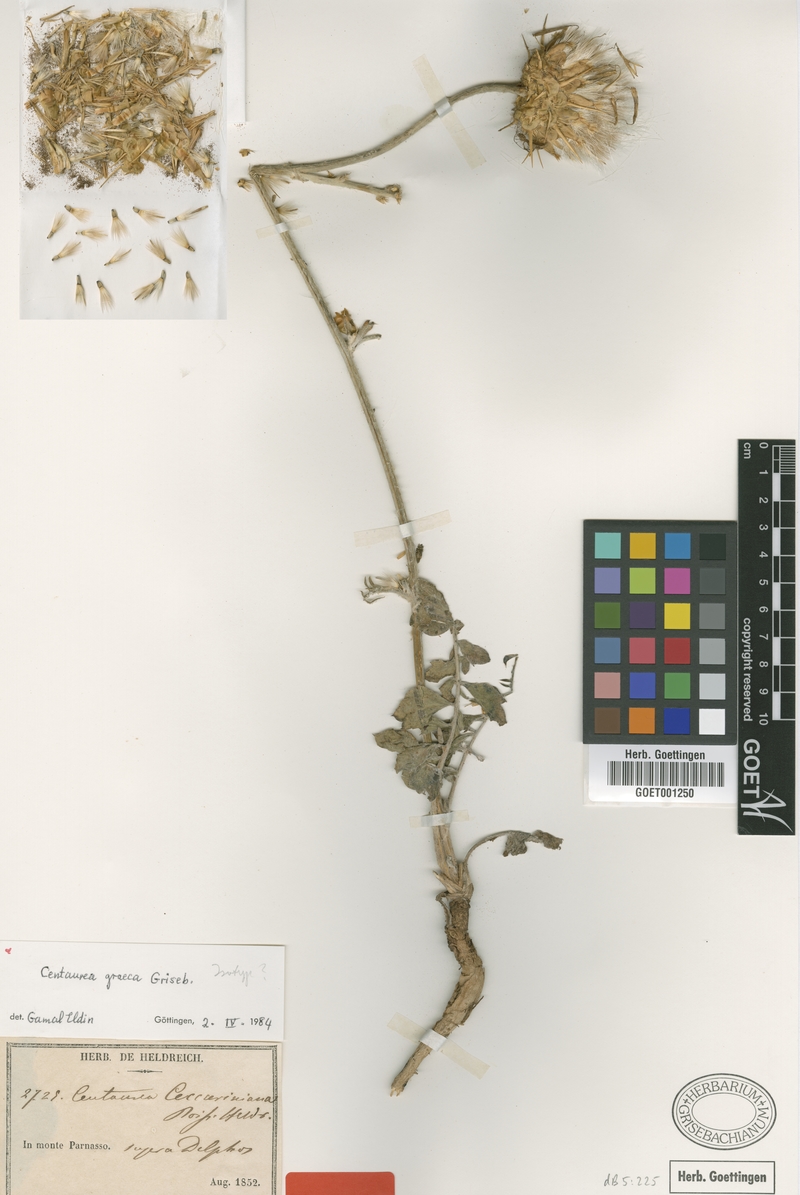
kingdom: Plantae
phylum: Tracheophyta
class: Magnoliopsida
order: Asterales
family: Asteraceae
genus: Centaurea
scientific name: Centaurea graeca
